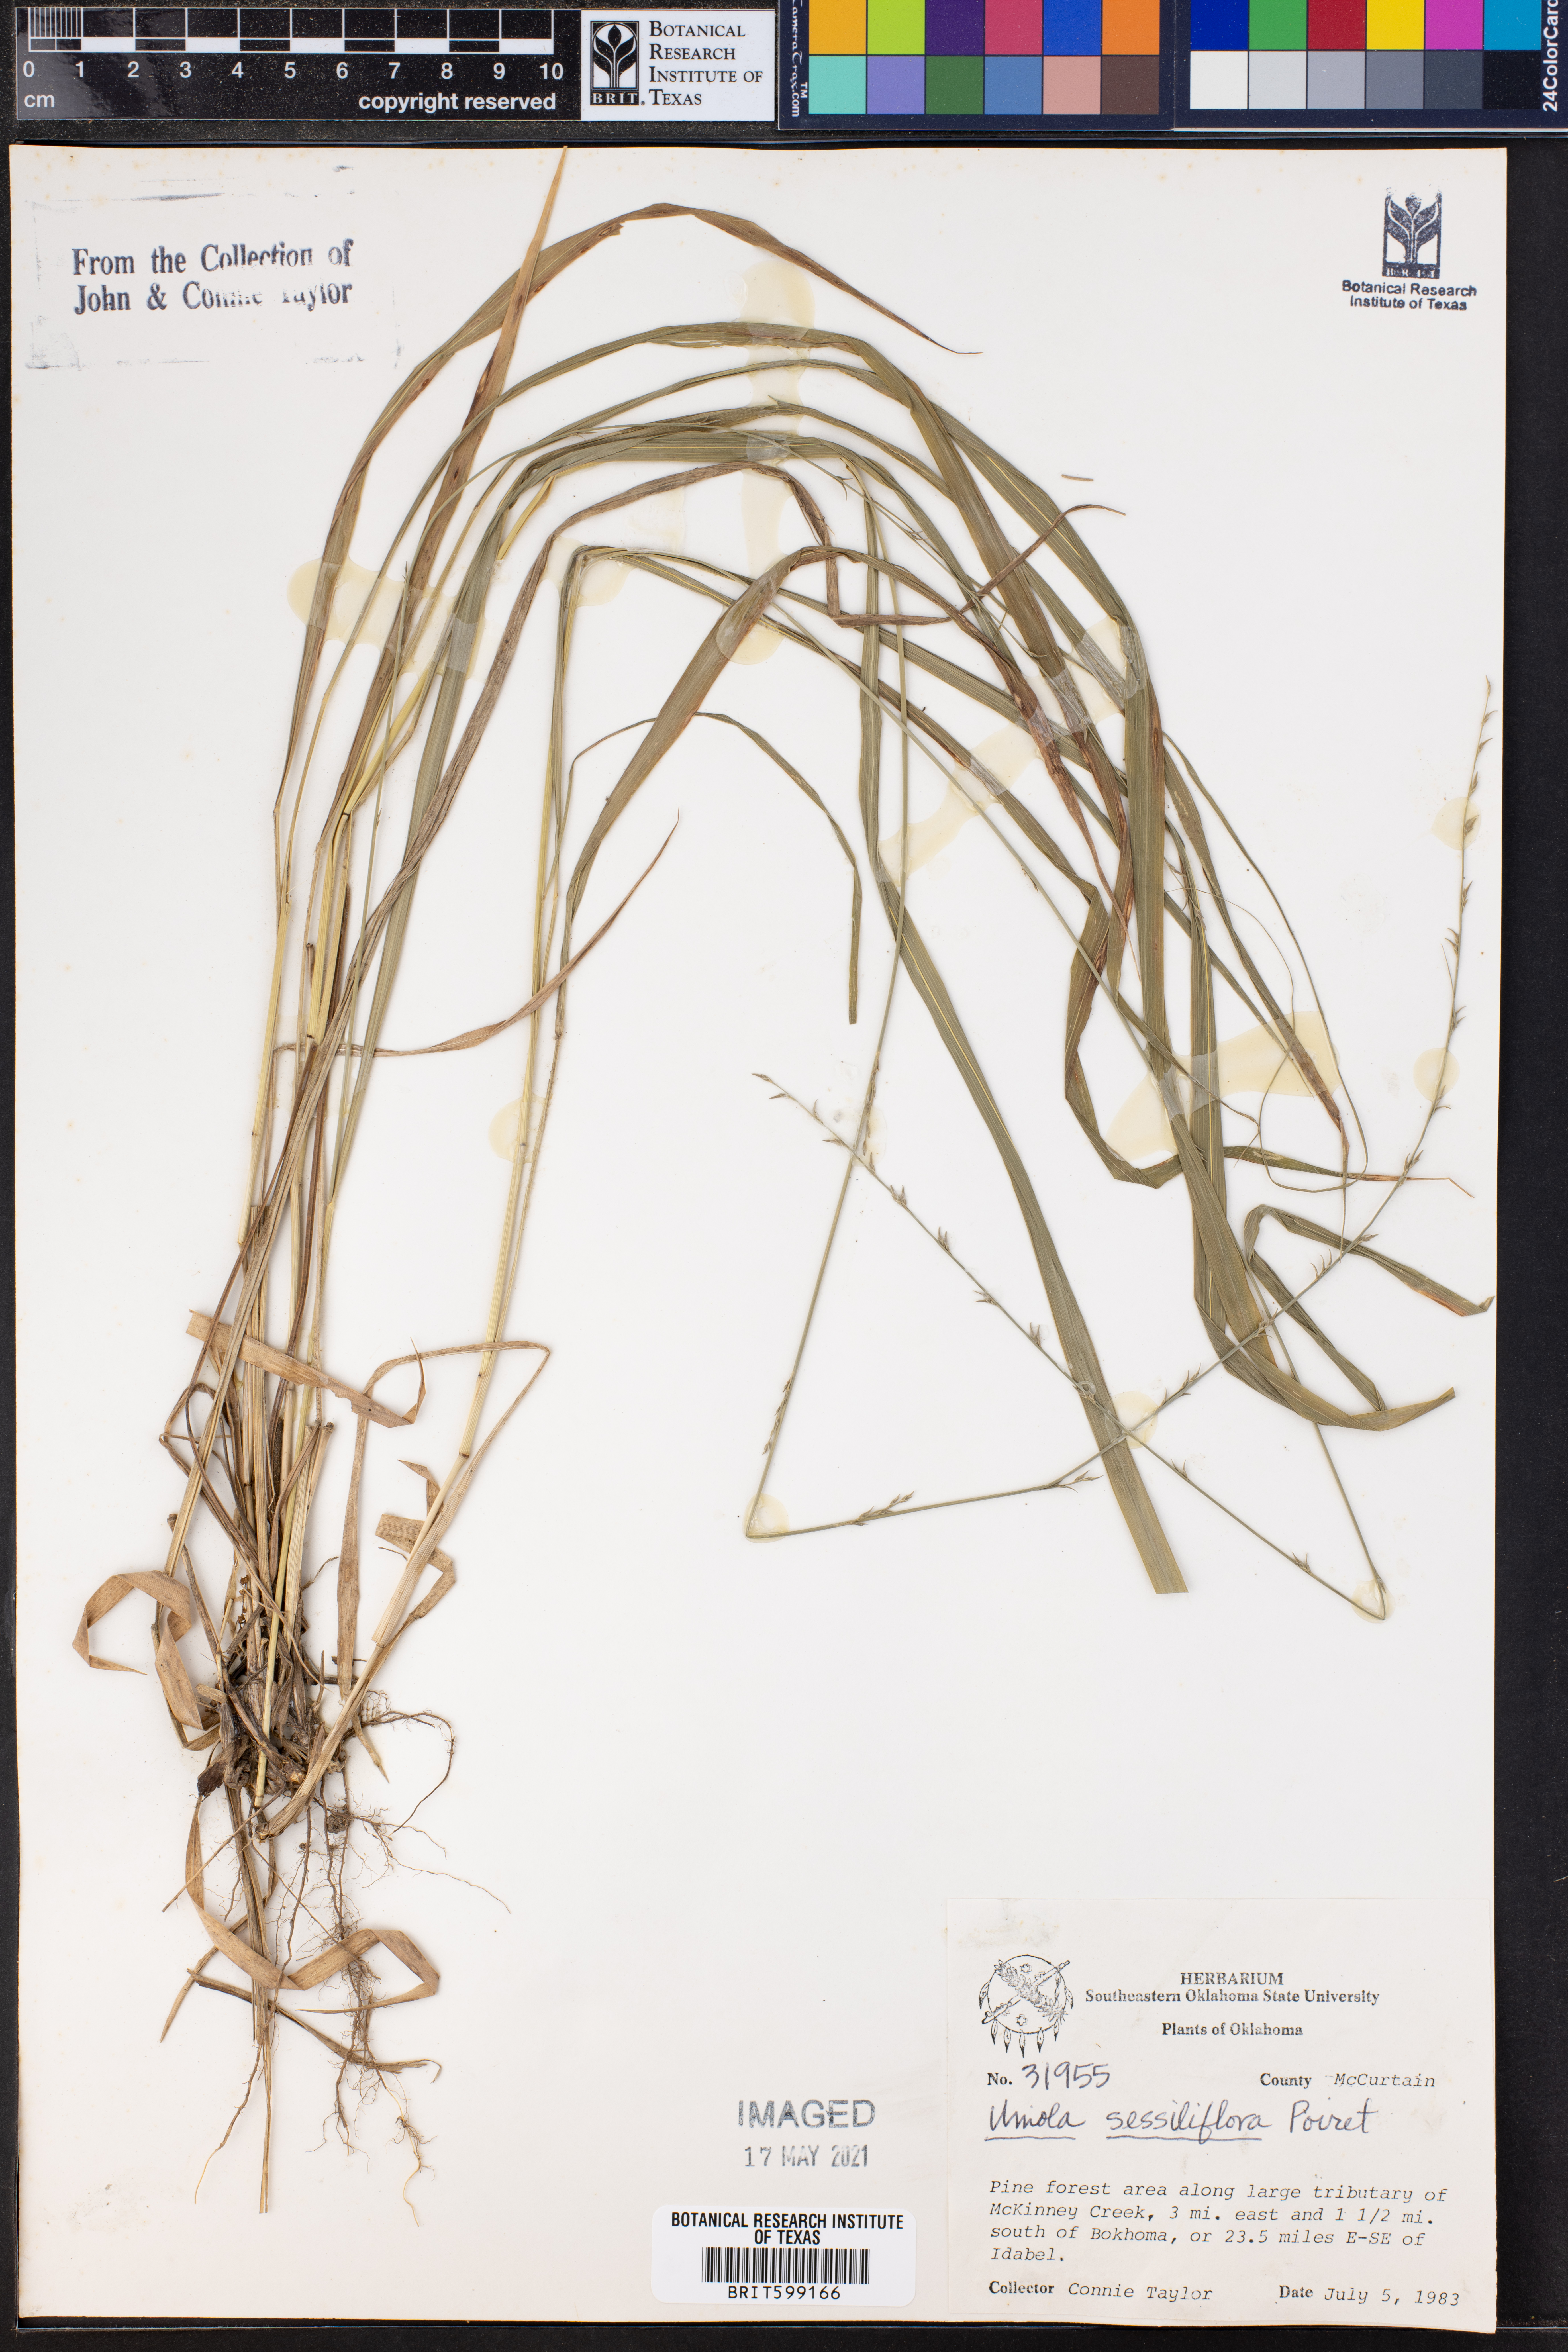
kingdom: Plantae
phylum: Tracheophyta
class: Liliopsida
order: Poales
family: Poaceae
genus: Chasmanthium
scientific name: Chasmanthium laxum
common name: Slender chasmanthium
